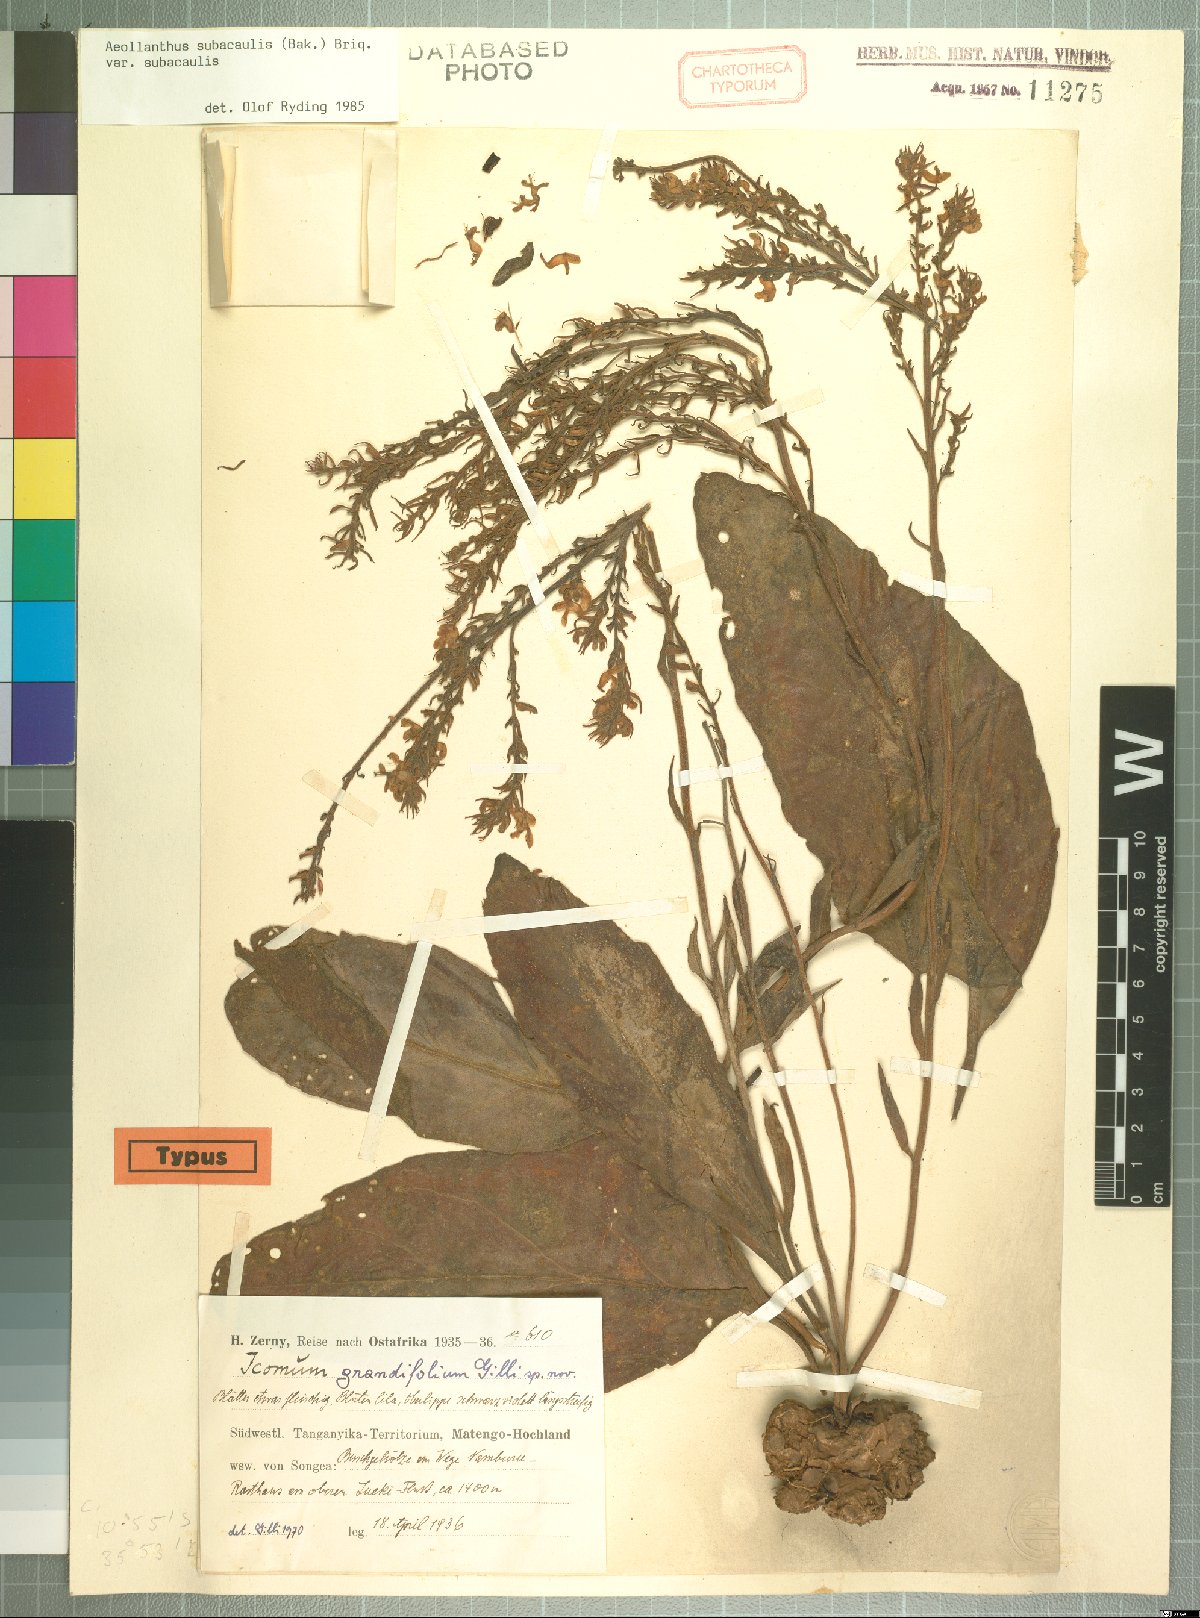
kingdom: Plantae
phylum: Tracheophyta
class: Magnoliopsida
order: Lamiales
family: Lamiaceae
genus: Aeollanthus
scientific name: Aeollanthus subacaulis
